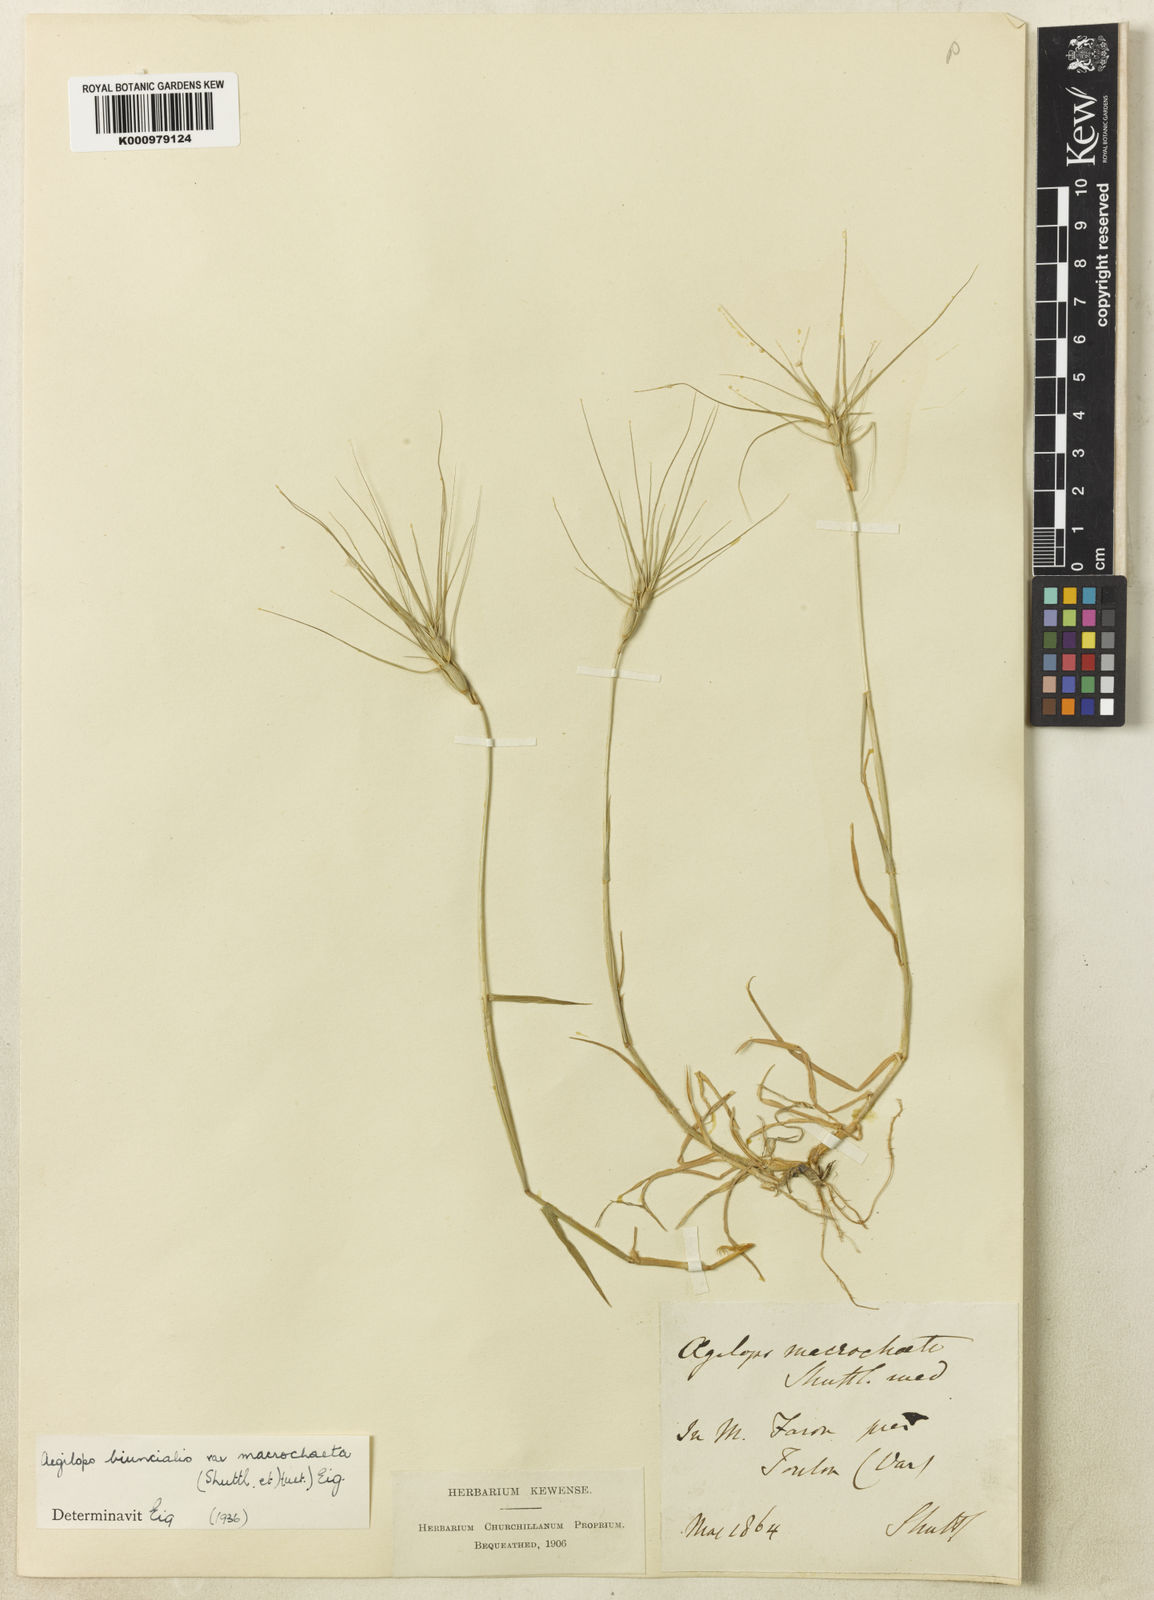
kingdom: Plantae
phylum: Tracheophyta
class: Liliopsida
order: Poales
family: Poaceae
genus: Aegilops
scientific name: Aegilops biuncialis
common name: Mediterranean aegilops
